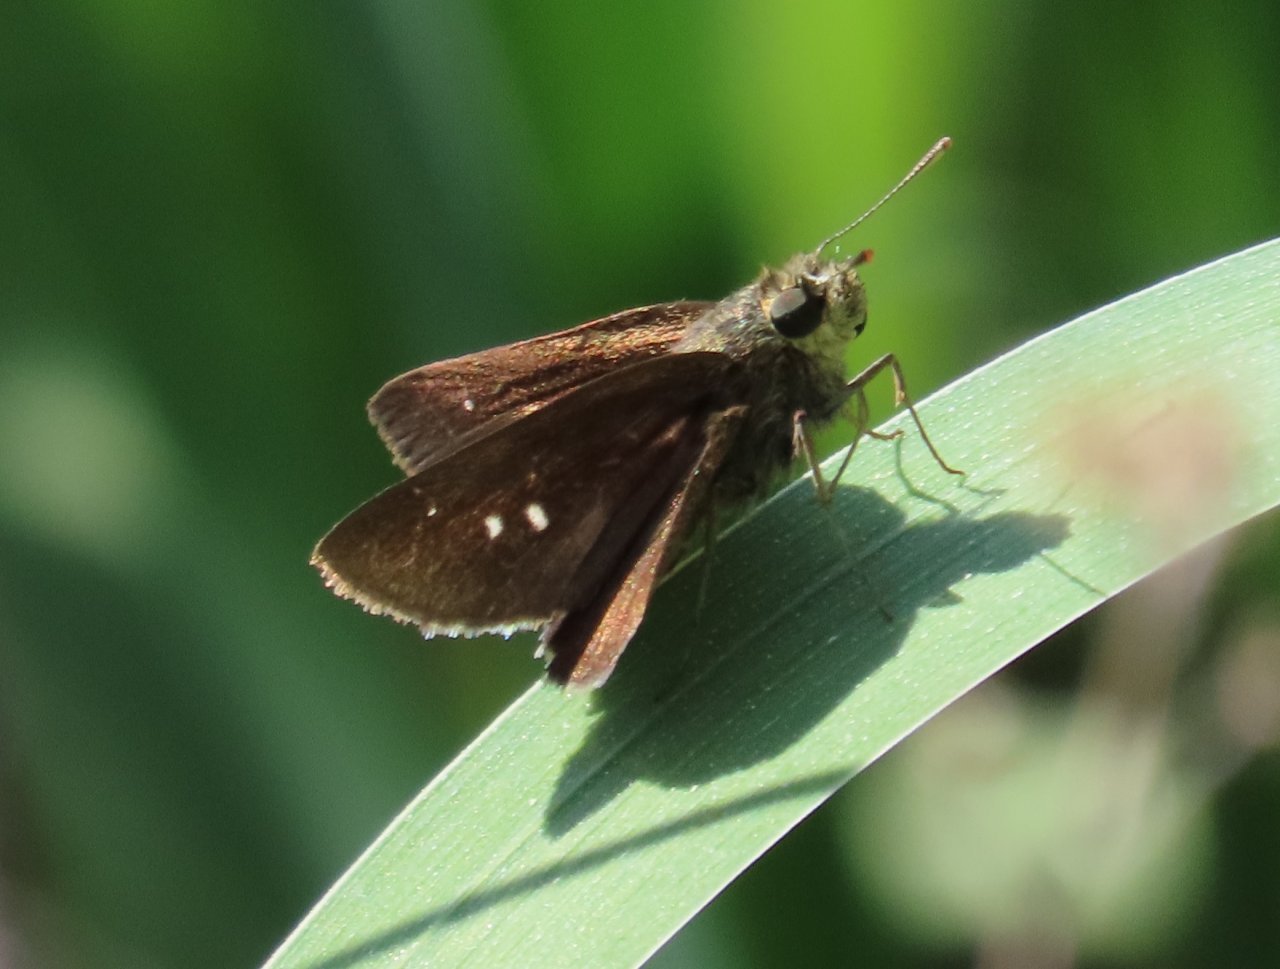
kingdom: Animalia
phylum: Arthropoda
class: Insecta
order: Lepidoptera
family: Hesperiidae
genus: Oligoria
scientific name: Oligoria maculata
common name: Twin-spot Skipper
